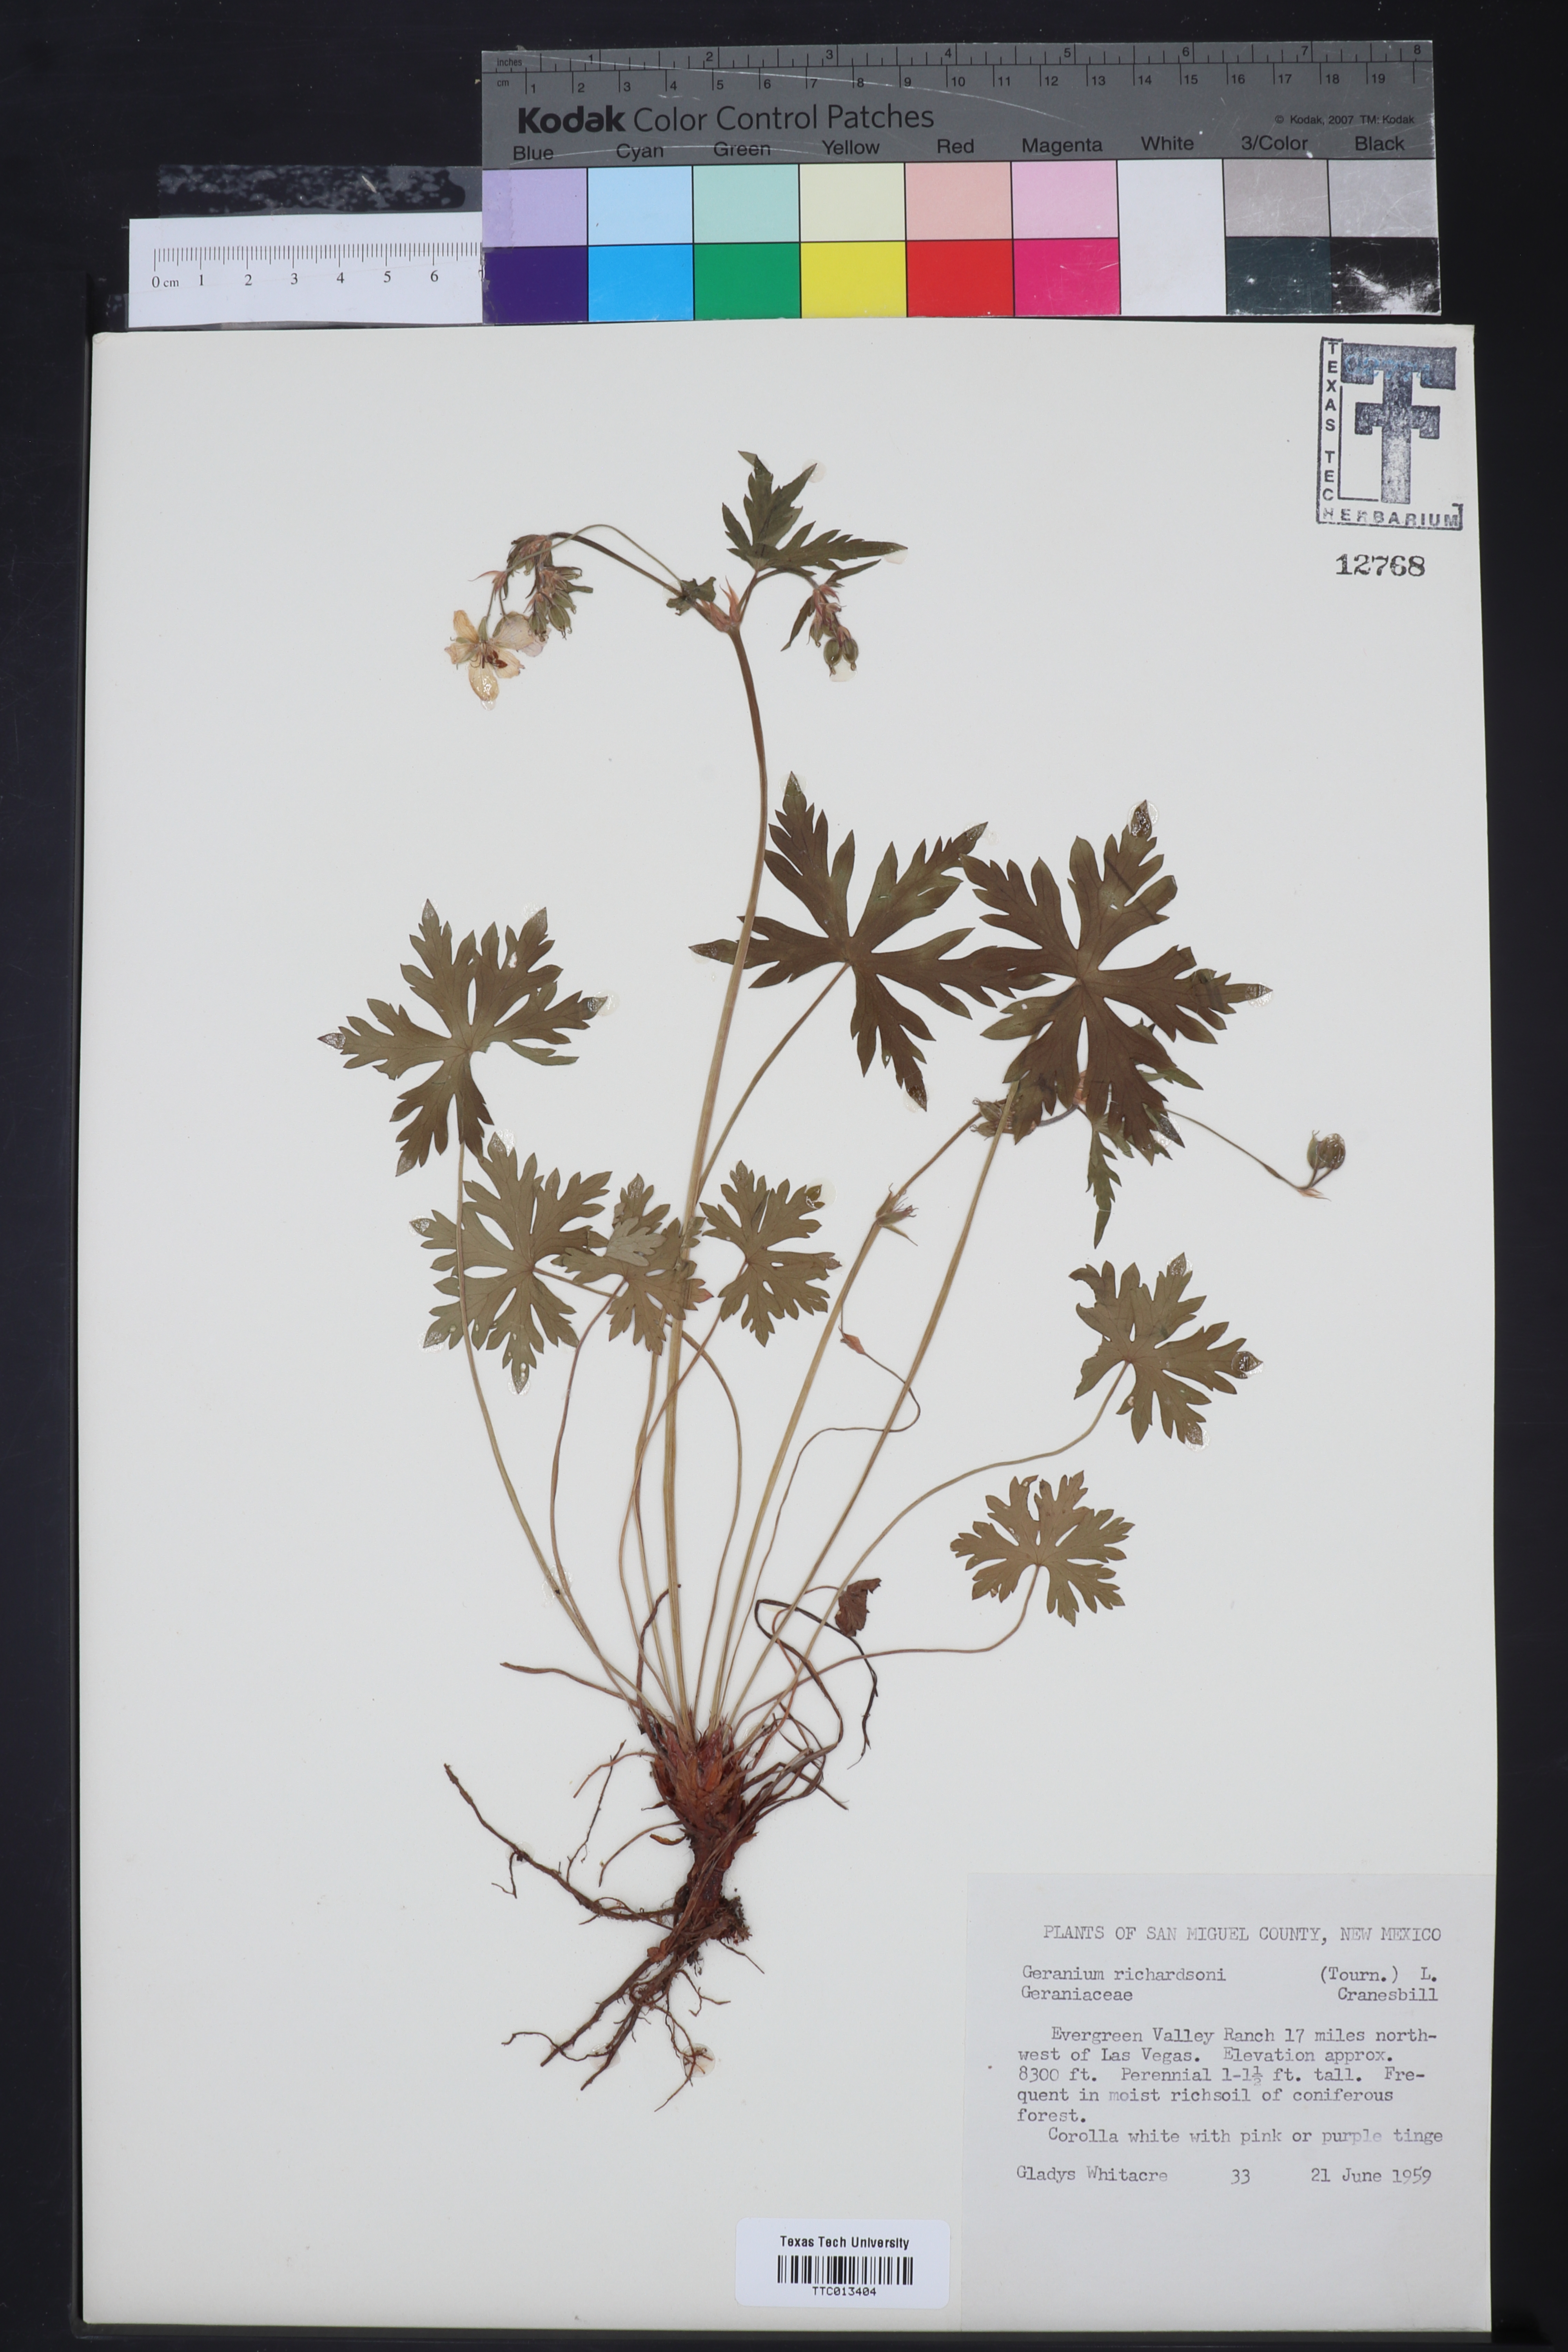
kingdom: Plantae
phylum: Tracheophyta
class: Magnoliopsida
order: Geraniales
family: Geraniaceae
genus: Geranium
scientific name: Geranium richardsonii
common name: Richardson's crane's-bill
